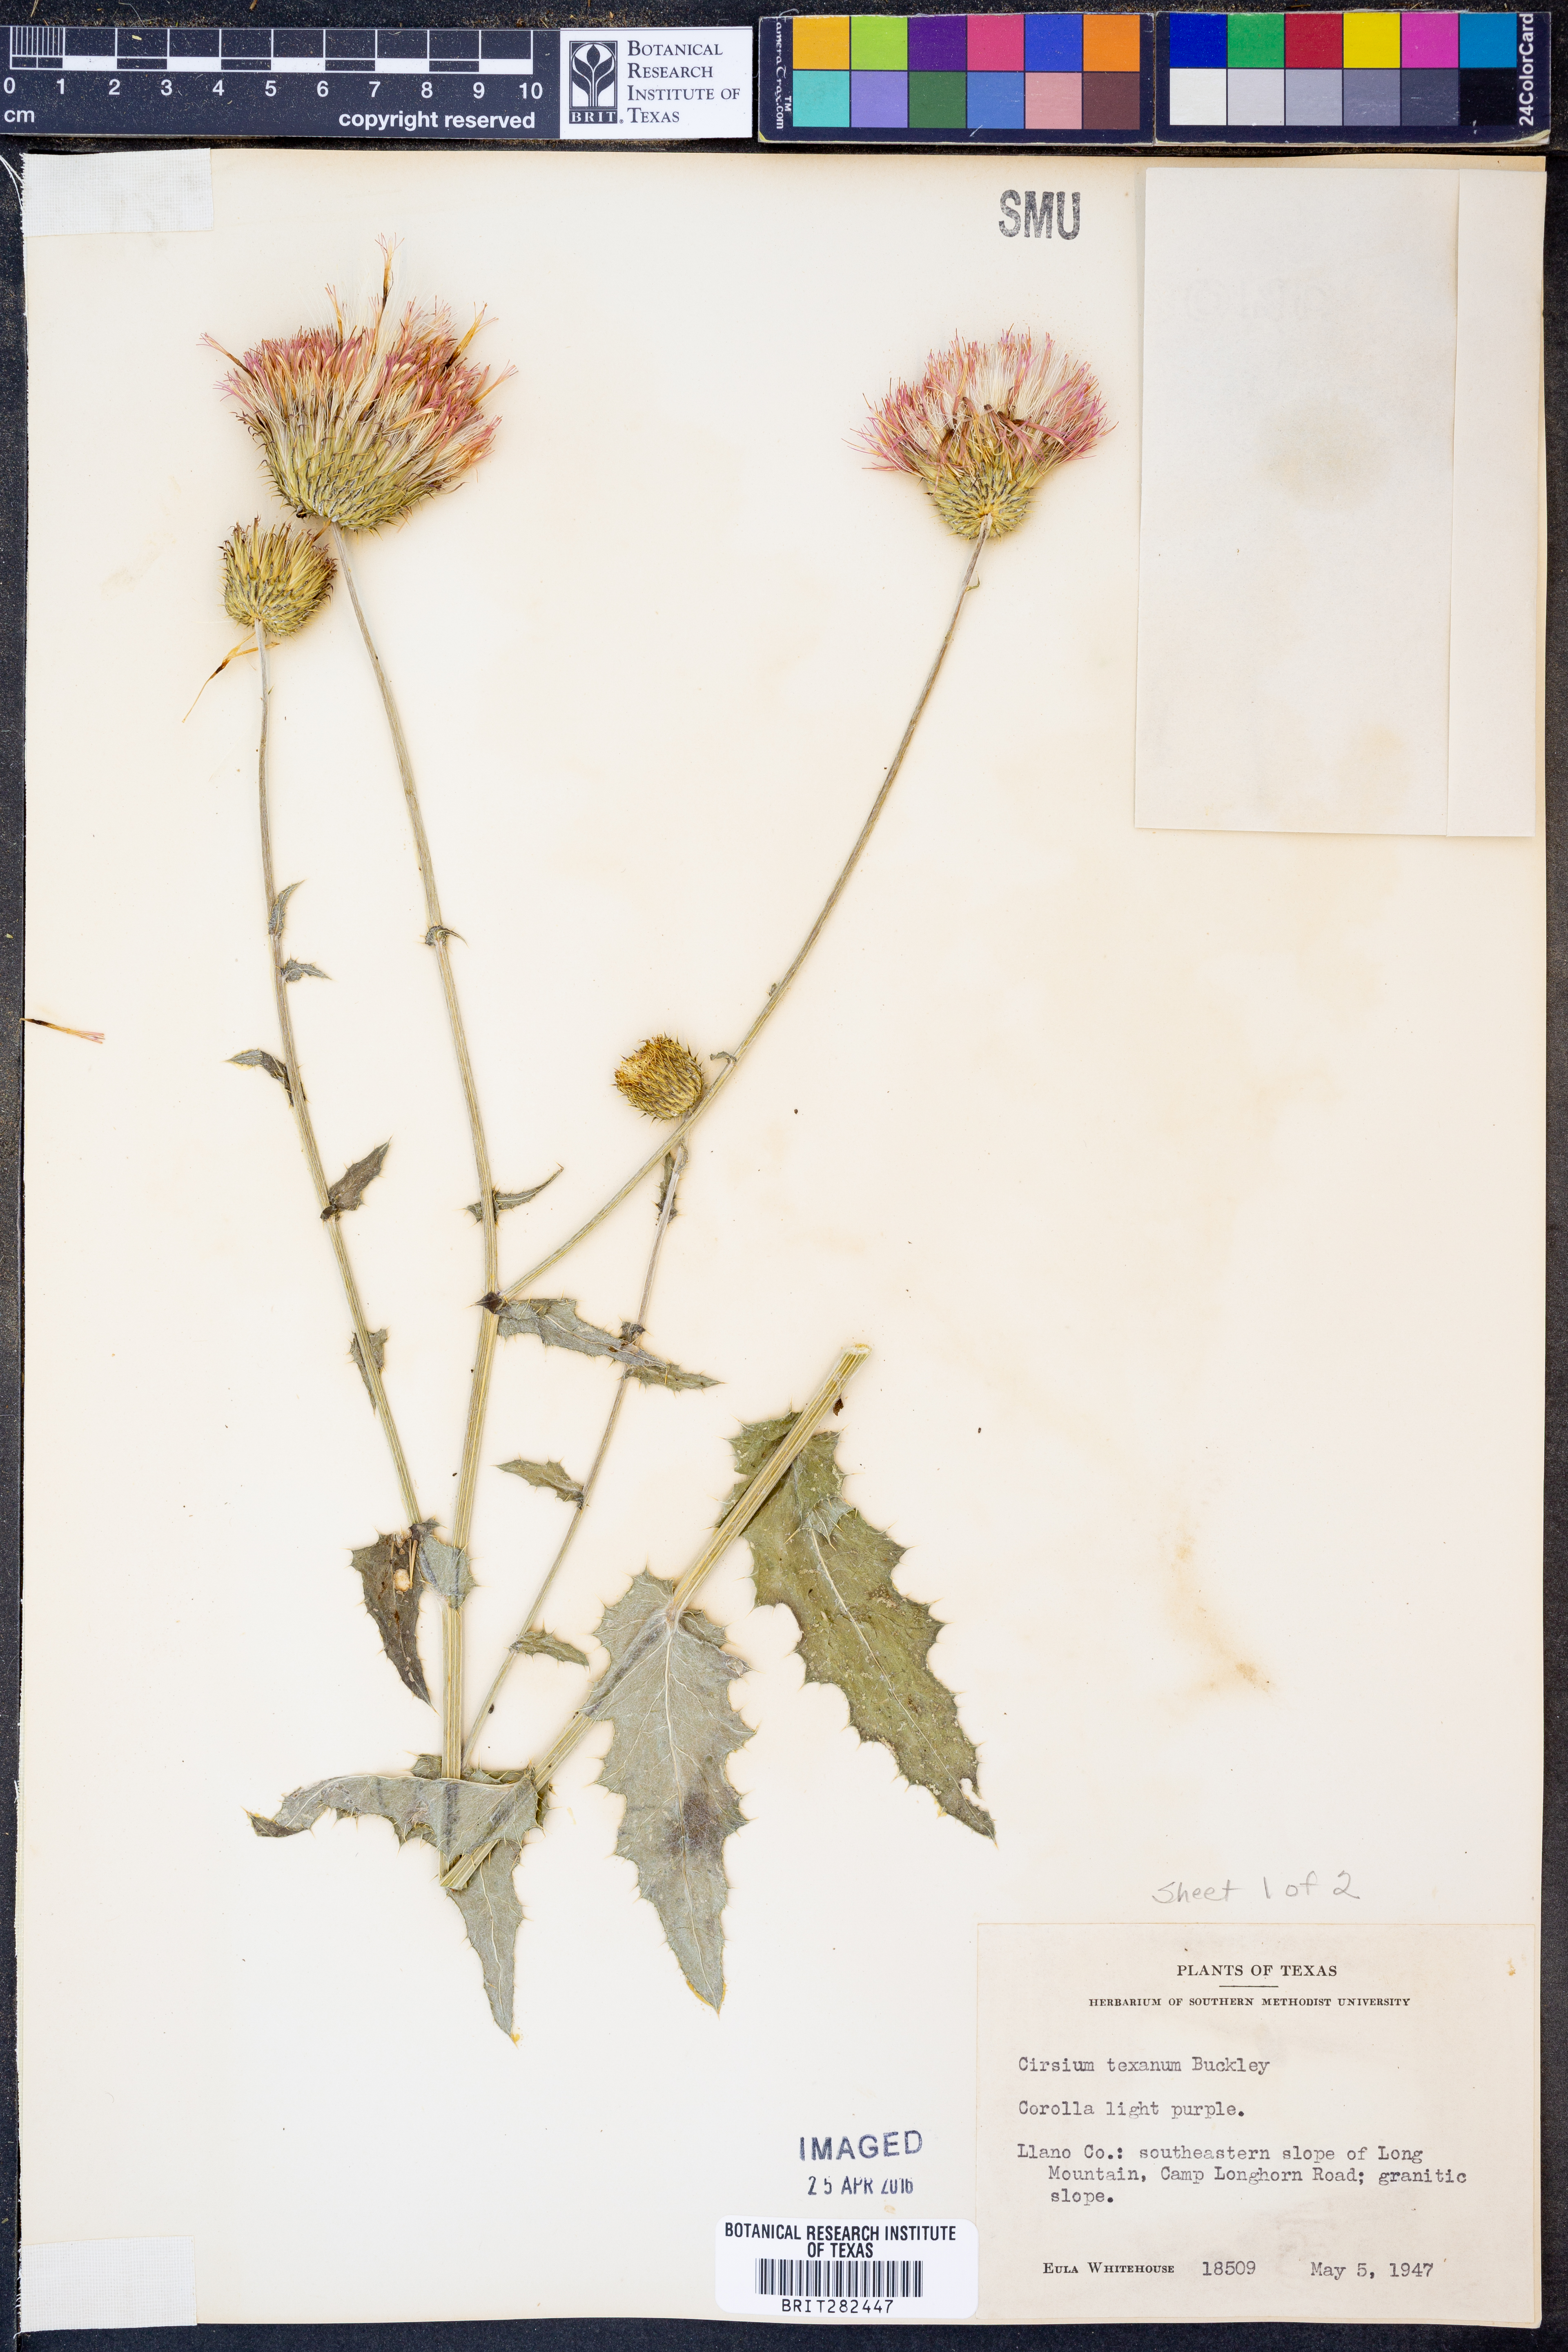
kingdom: Plantae
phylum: Tracheophyta
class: Magnoliopsida
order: Asterales
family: Asteraceae
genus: Cirsium
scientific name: Cirsium texanum
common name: Texas purple thistle
